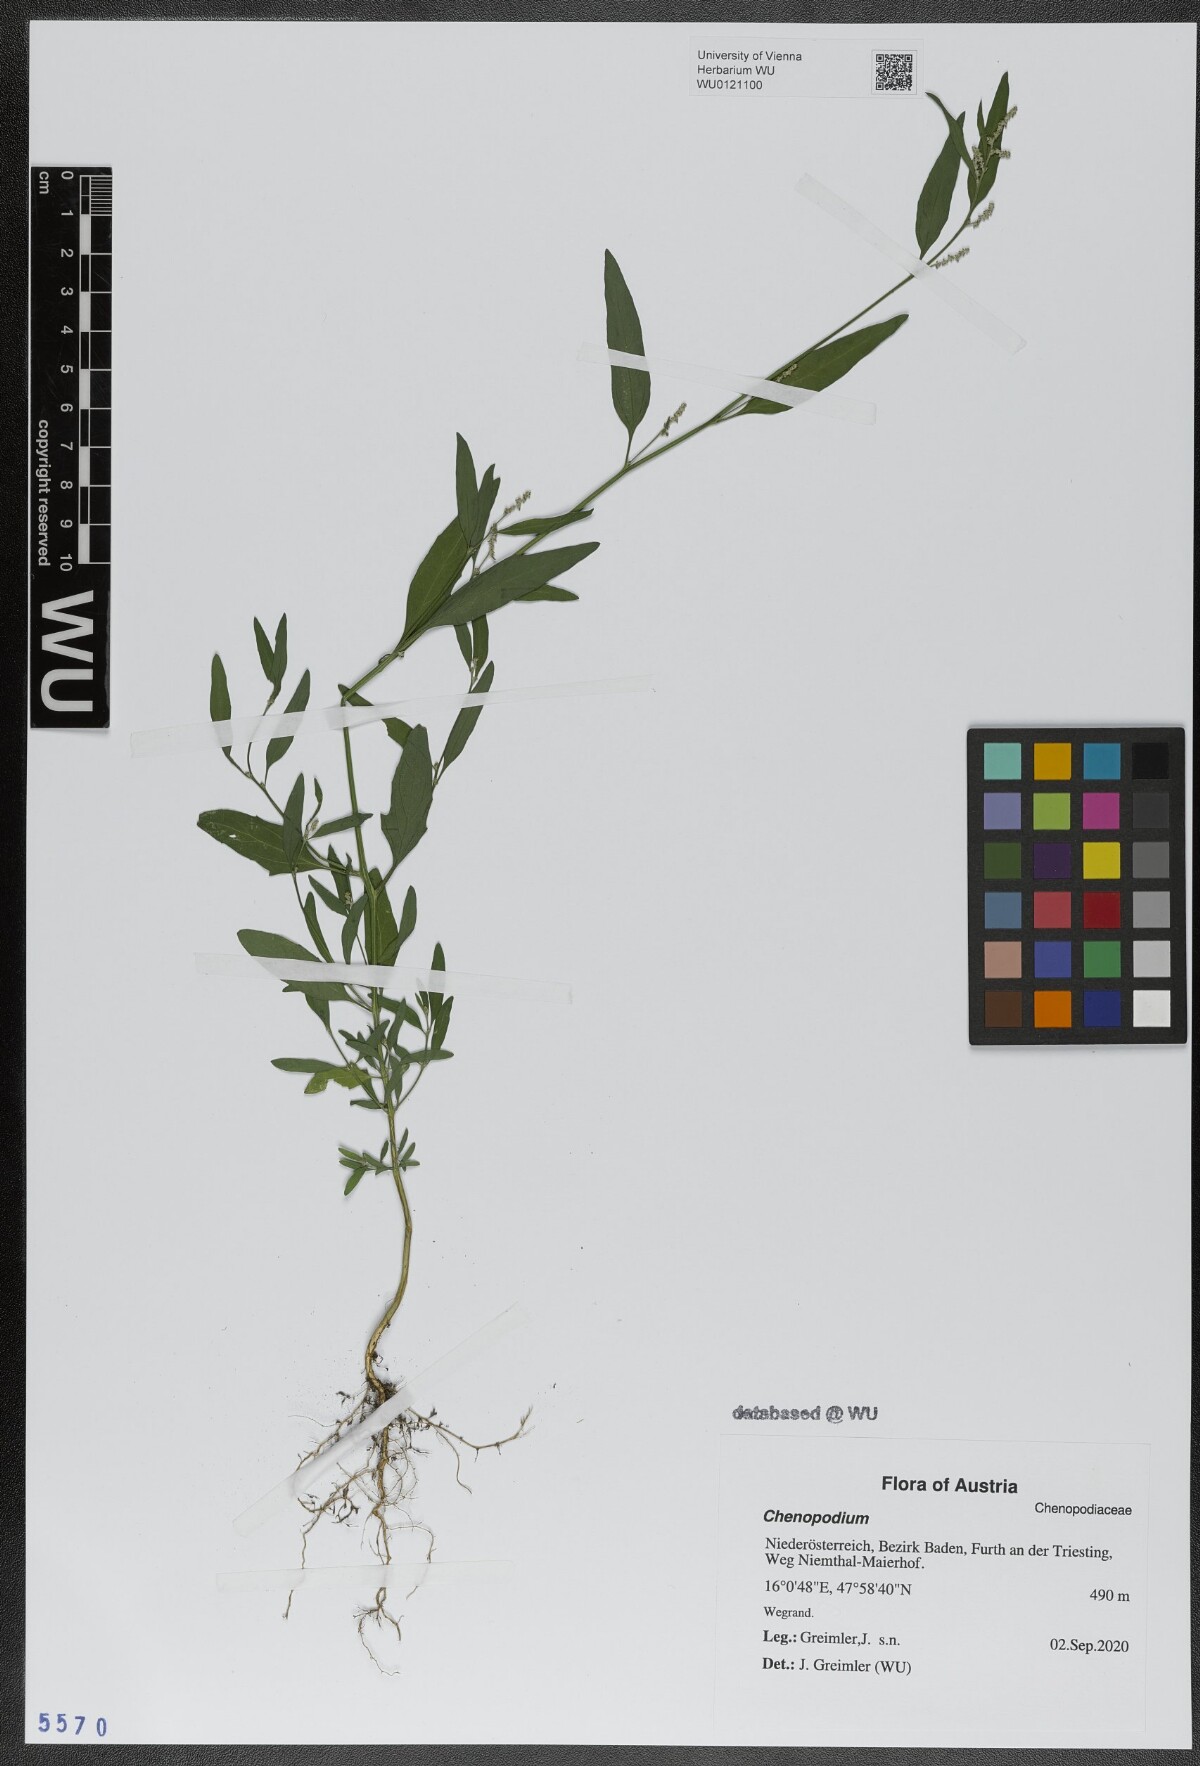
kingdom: Plantae
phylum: Tracheophyta
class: Magnoliopsida
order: Caryophyllales
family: Amaranthaceae
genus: Chenopodium
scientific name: Chenopodium
